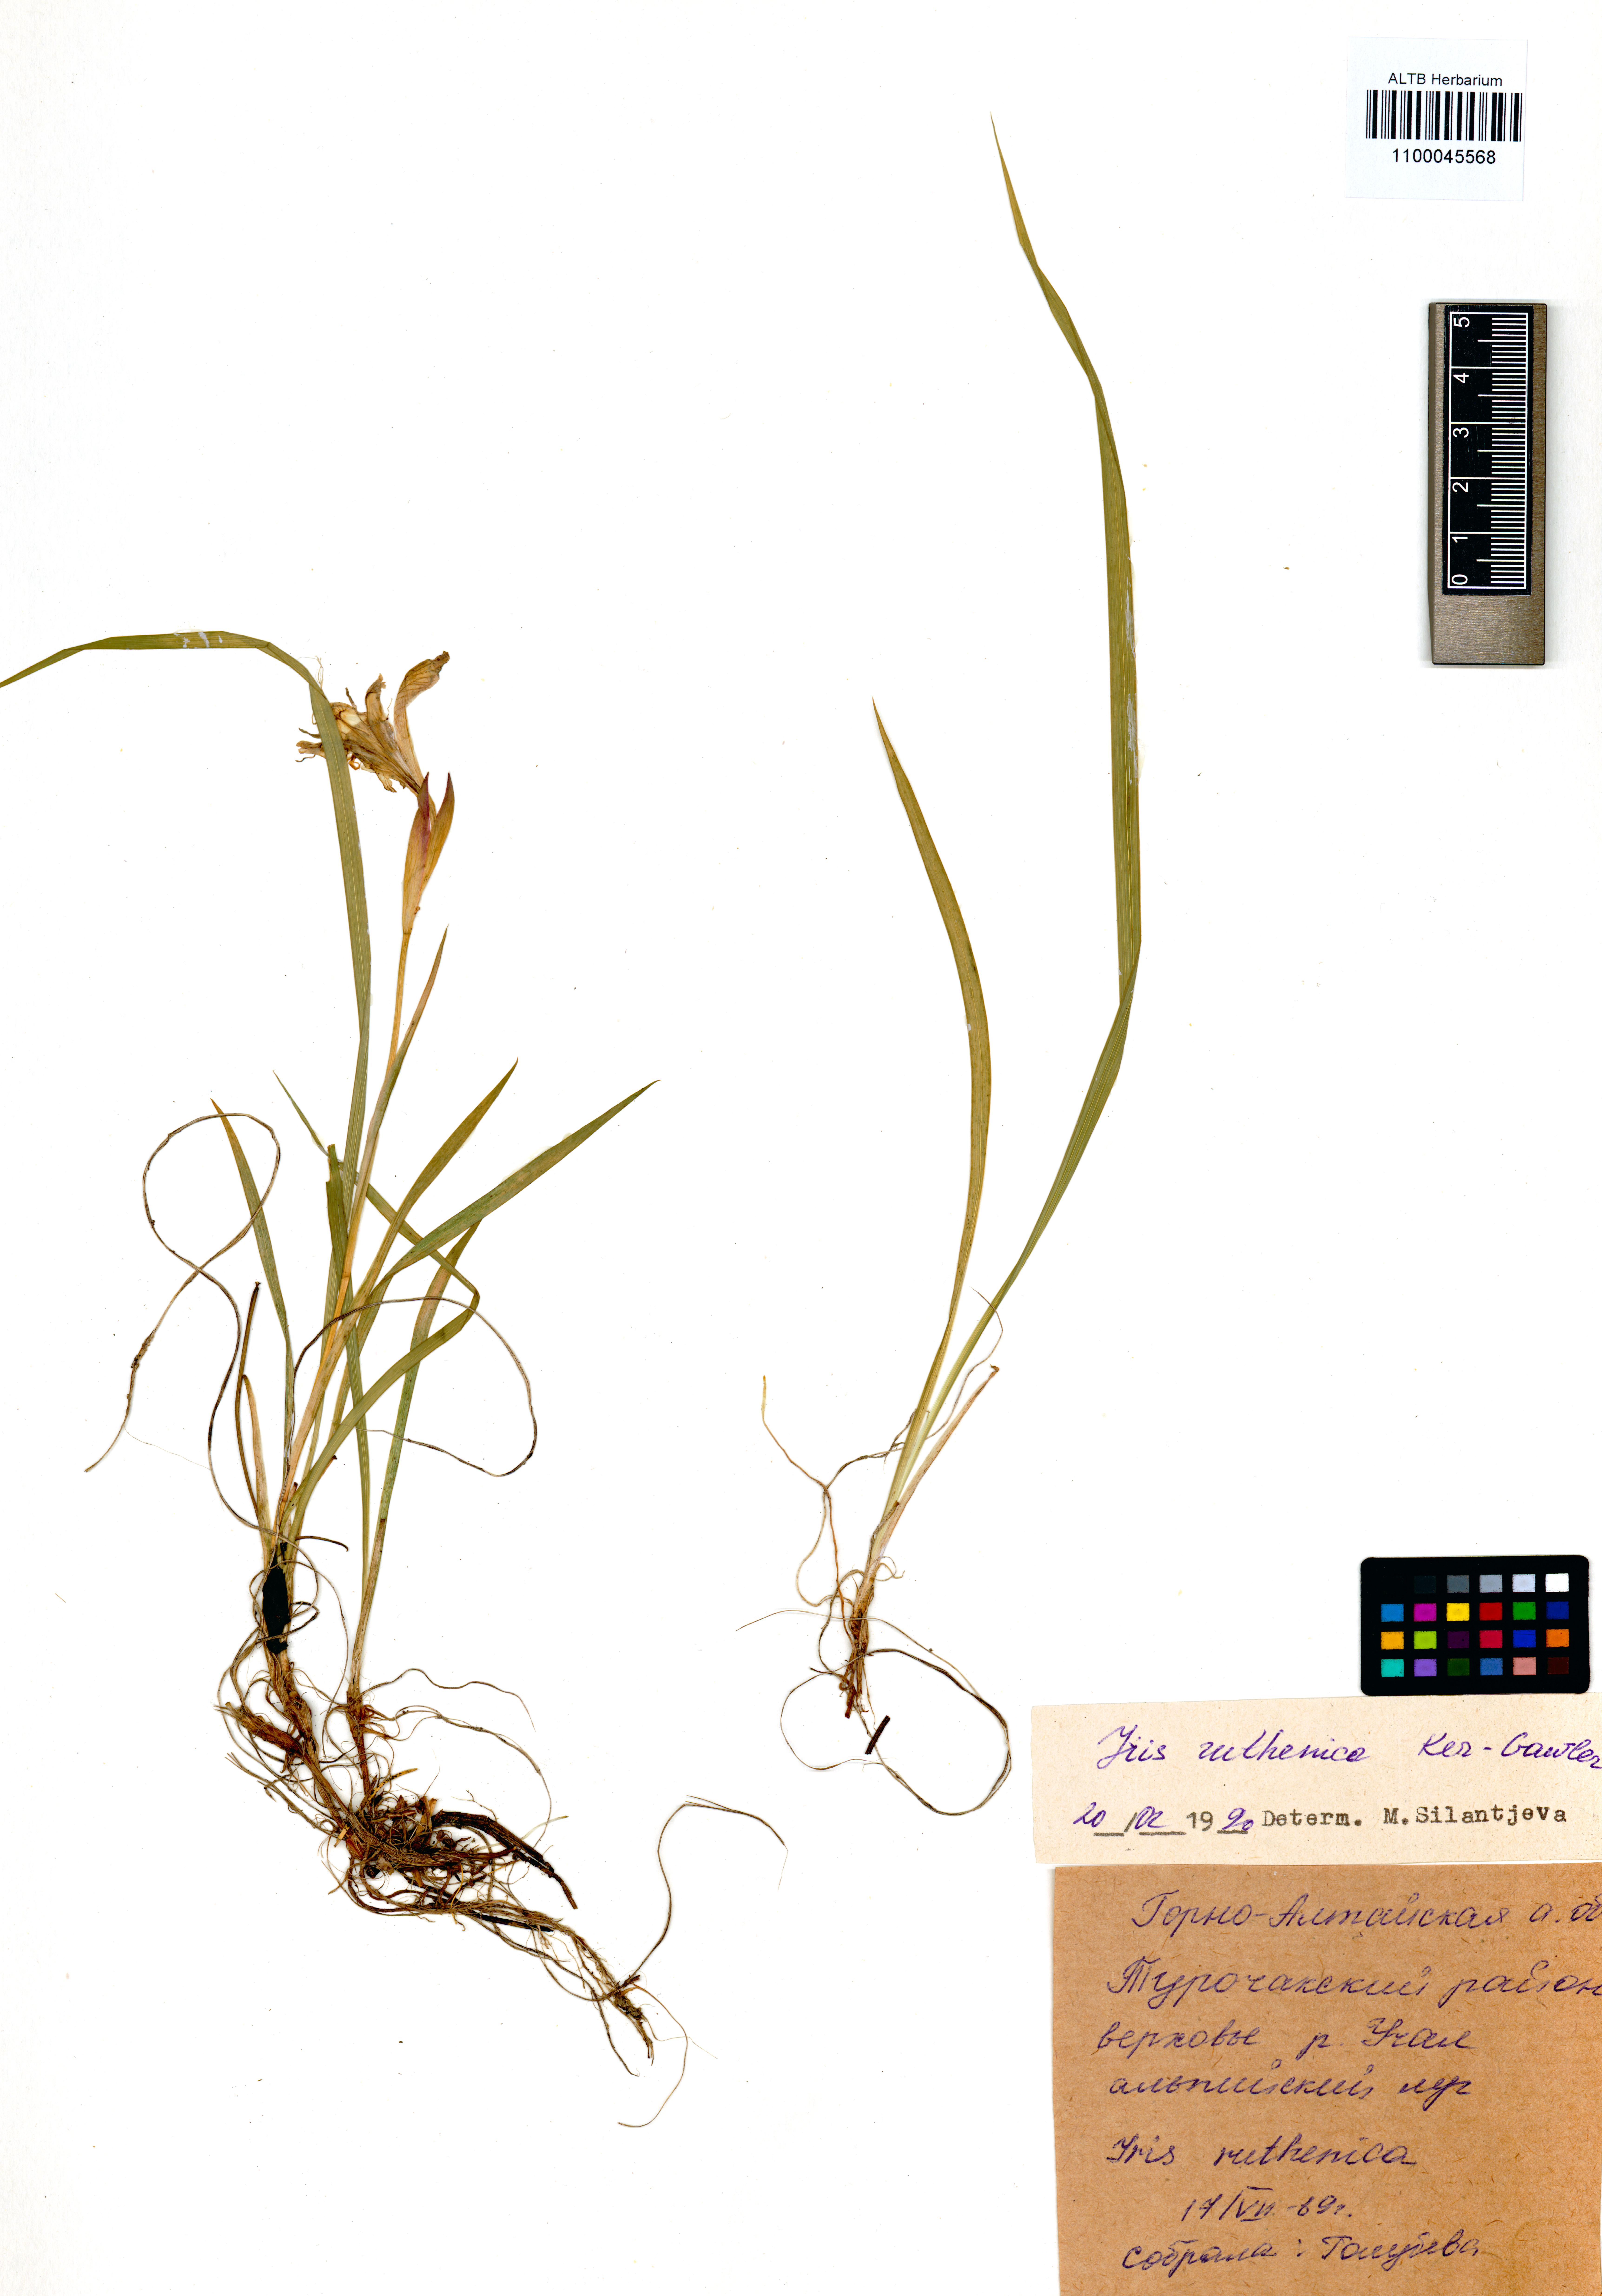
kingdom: Plantae
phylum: Tracheophyta
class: Liliopsida
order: Asparagales
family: Iridaceae
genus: Iris
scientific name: Iris ruthenica
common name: Purple-bract iris
